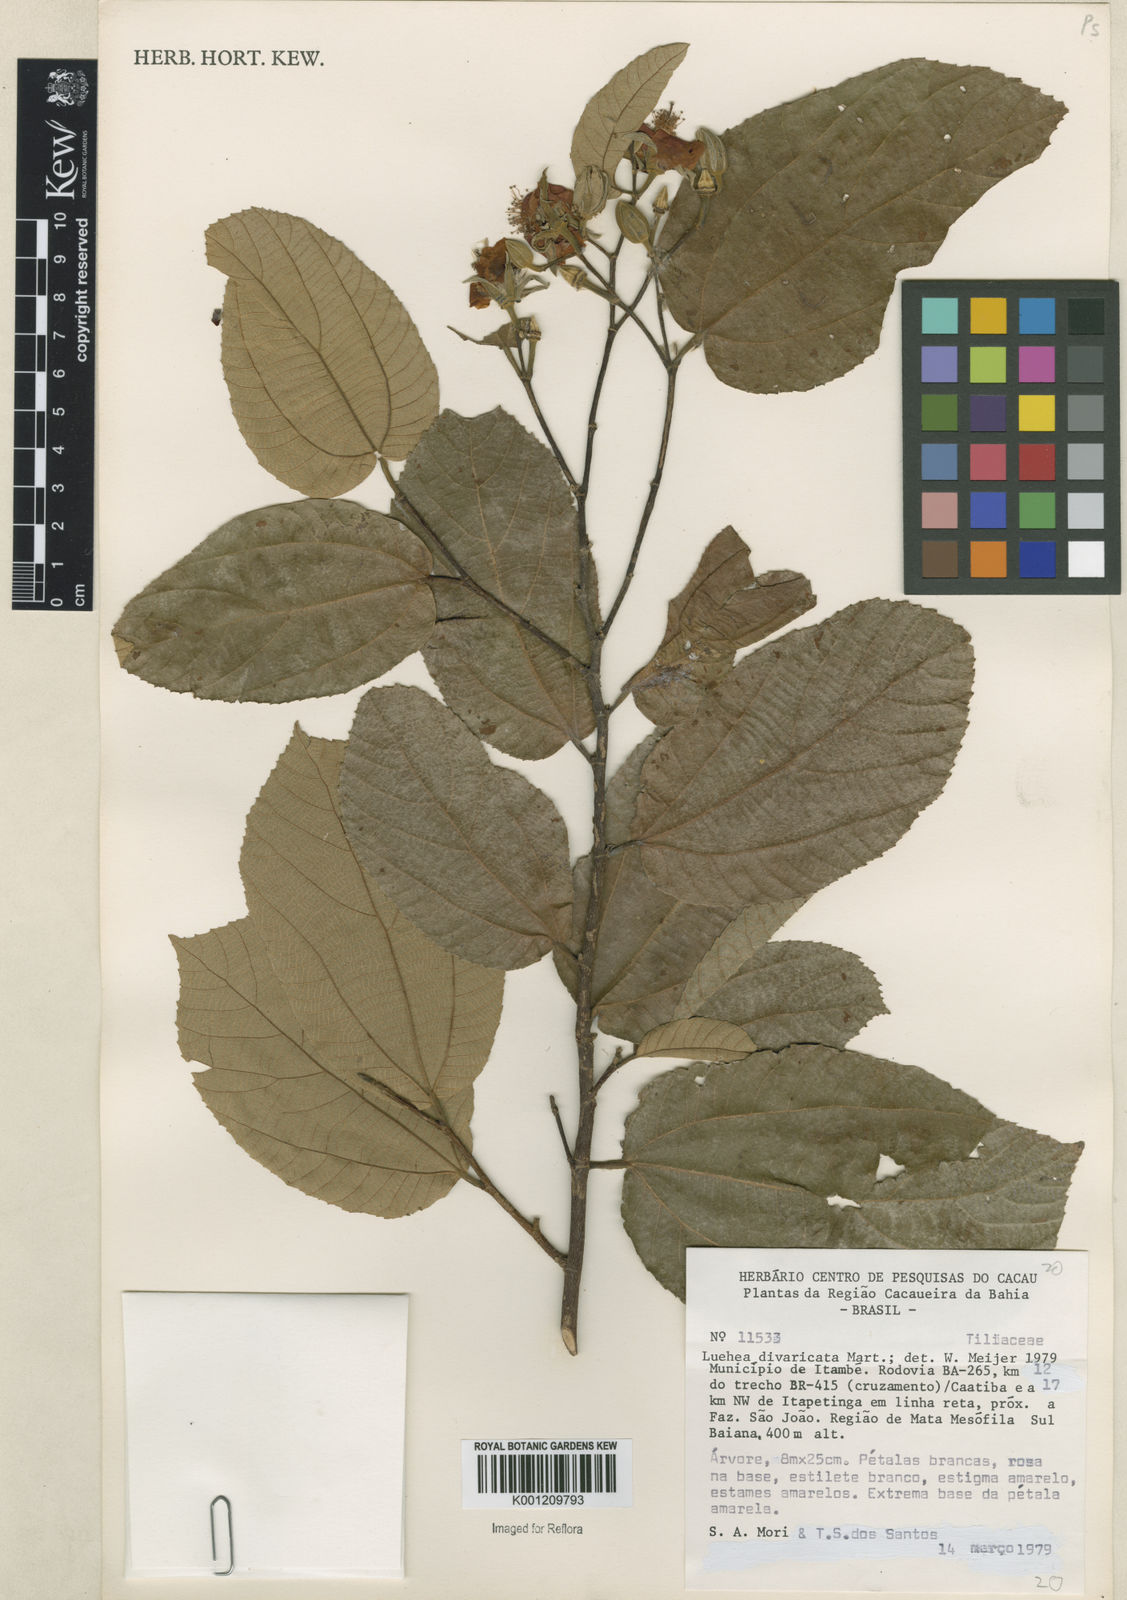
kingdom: Plantae
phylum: Tracheophyta
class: Magnoliopsida
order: Malvales
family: Malvaceae
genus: Luehea
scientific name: Luehea divaricata
